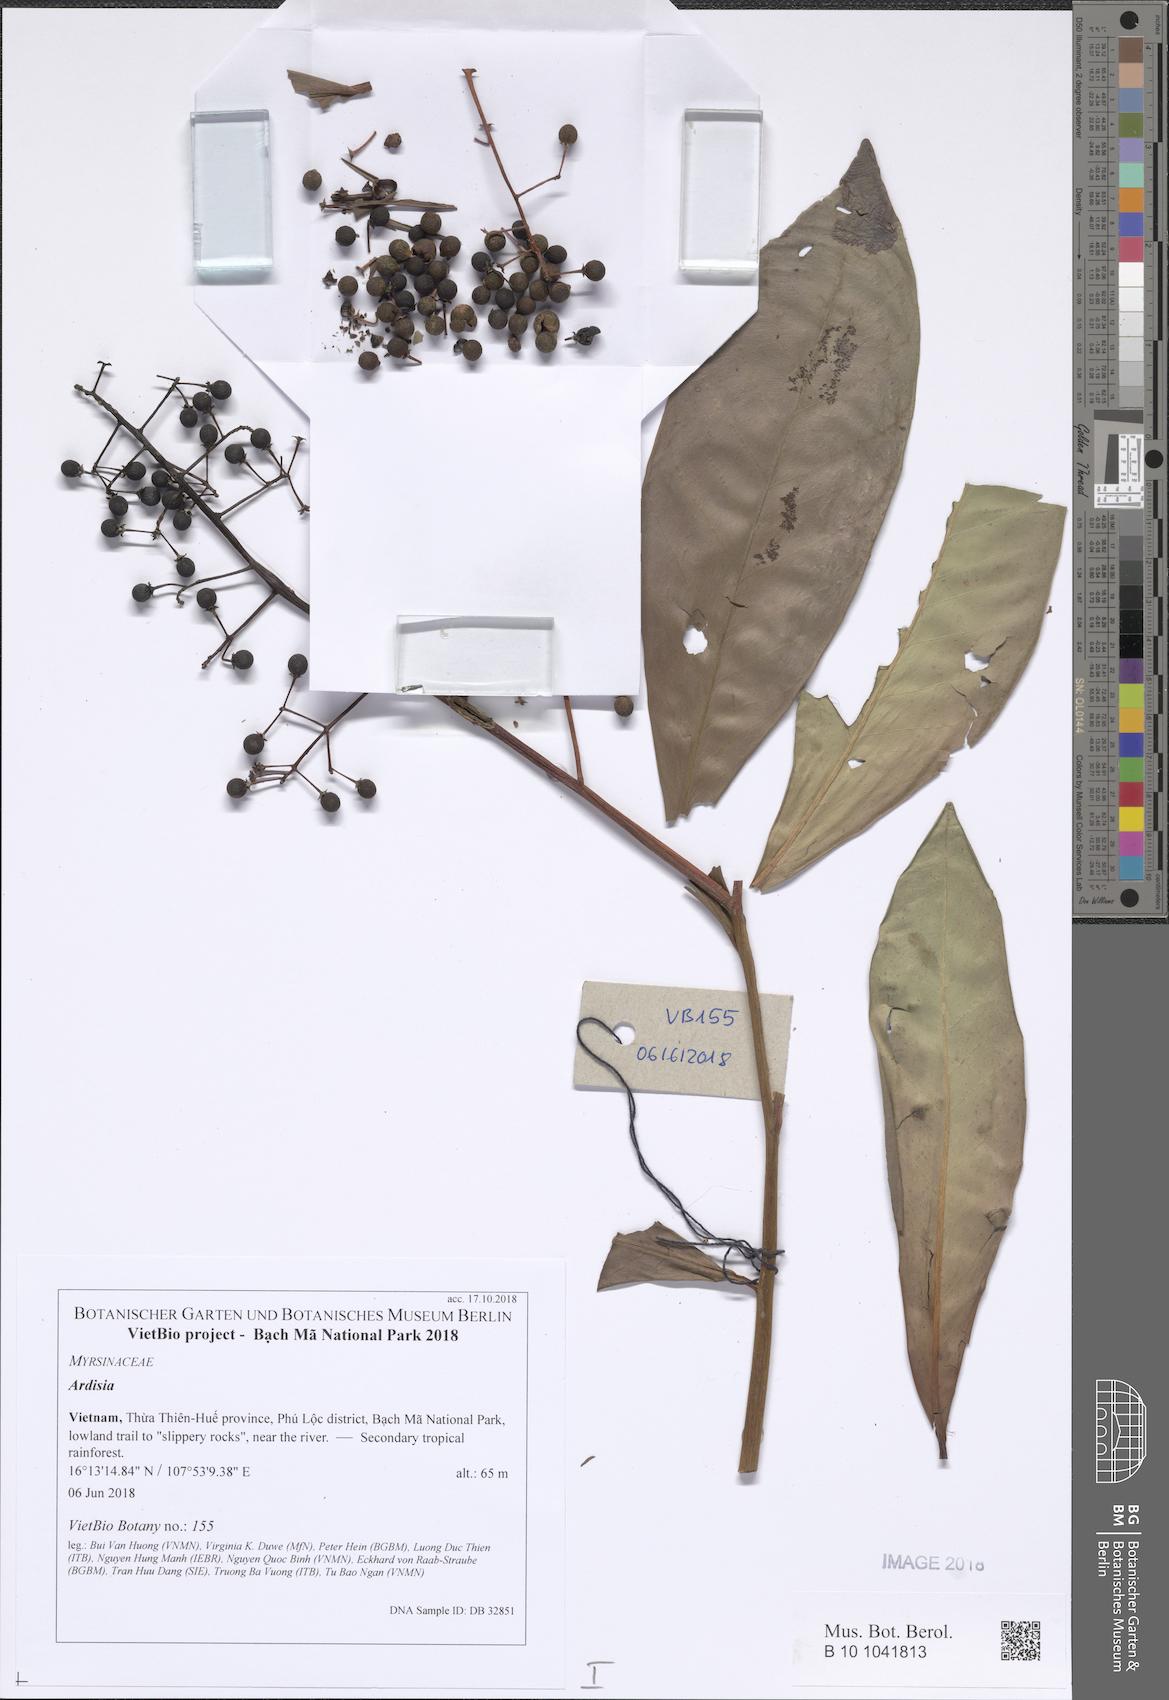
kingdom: Plantae
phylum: Tracheophyta
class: Magnoliopsida
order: Ericales
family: Primulaceae
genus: Ardisia
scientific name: Ardisia loureiroana
